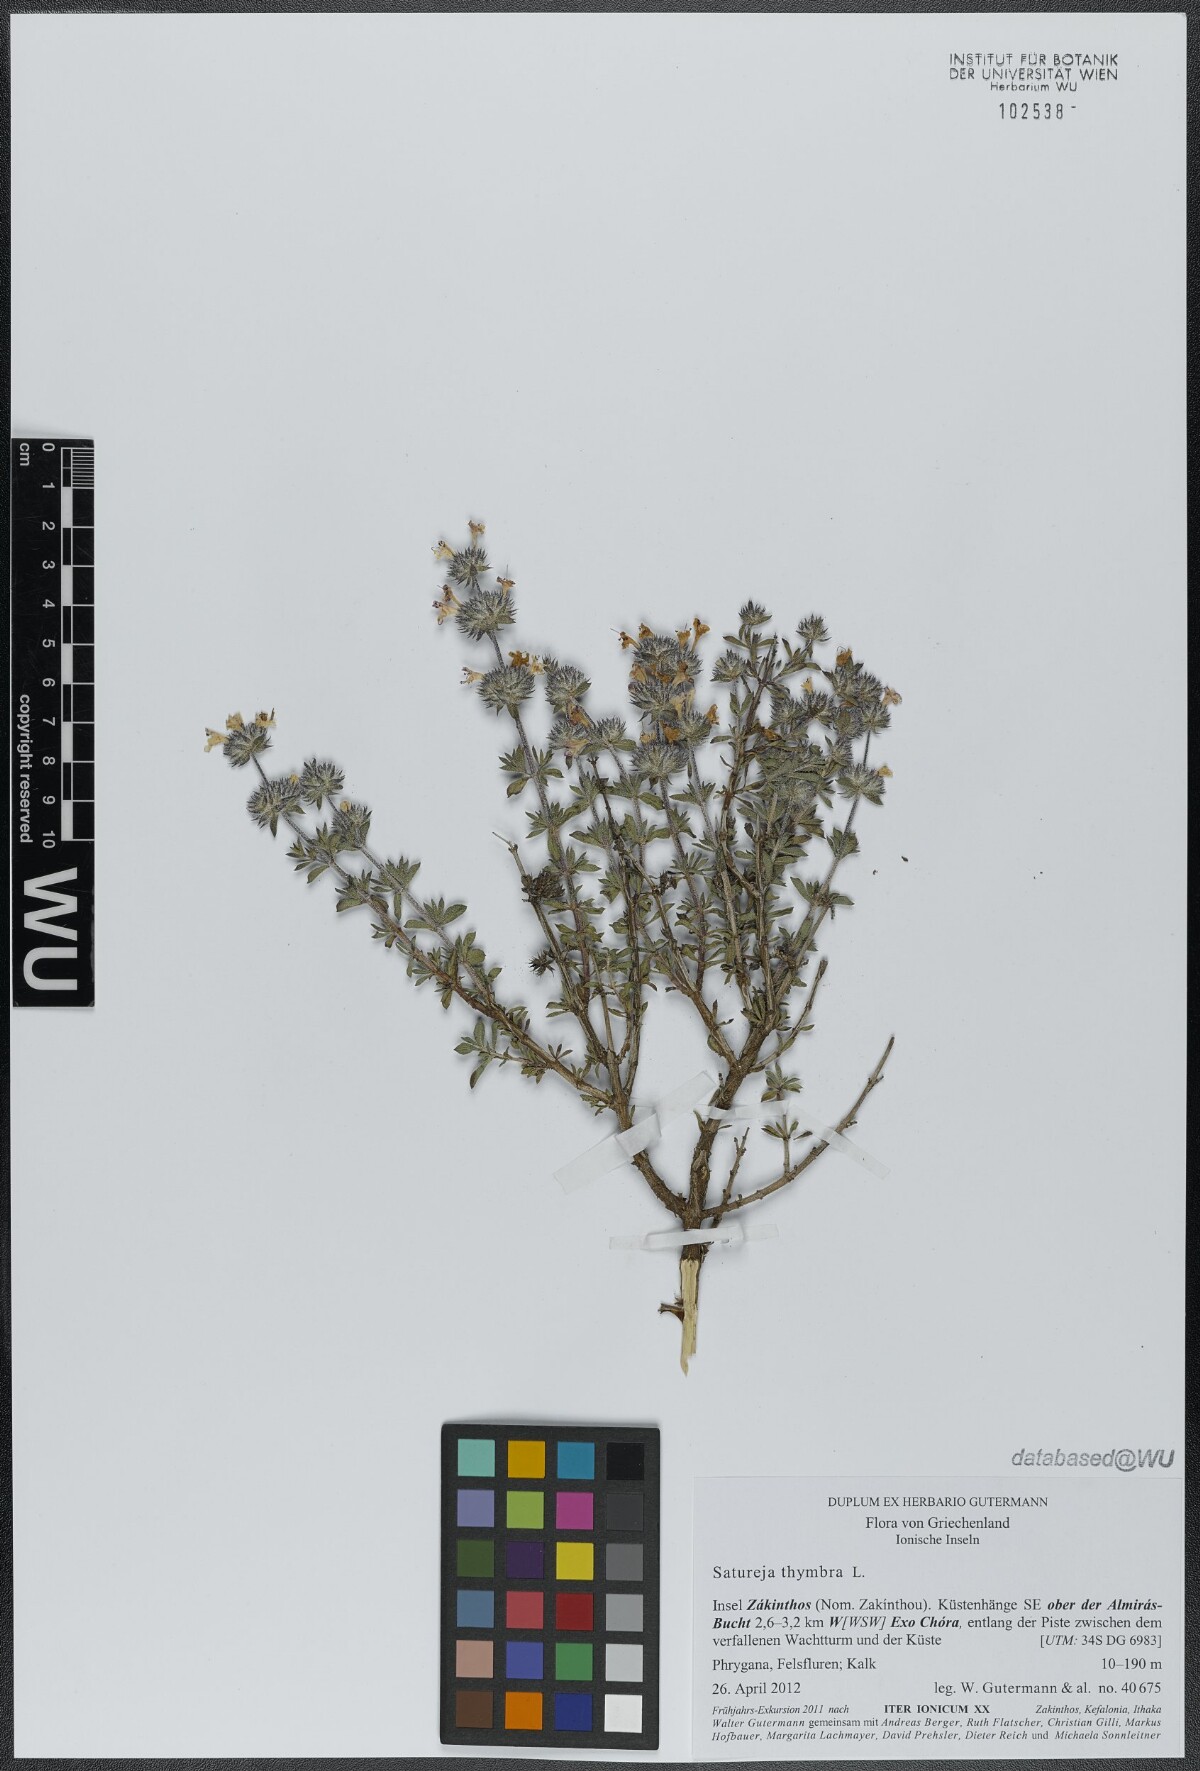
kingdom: Plantae
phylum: Tracheophyta
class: Magnoliopsida
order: Lamiales
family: Lamiaceae
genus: Satureja
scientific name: Satureja thymbra
